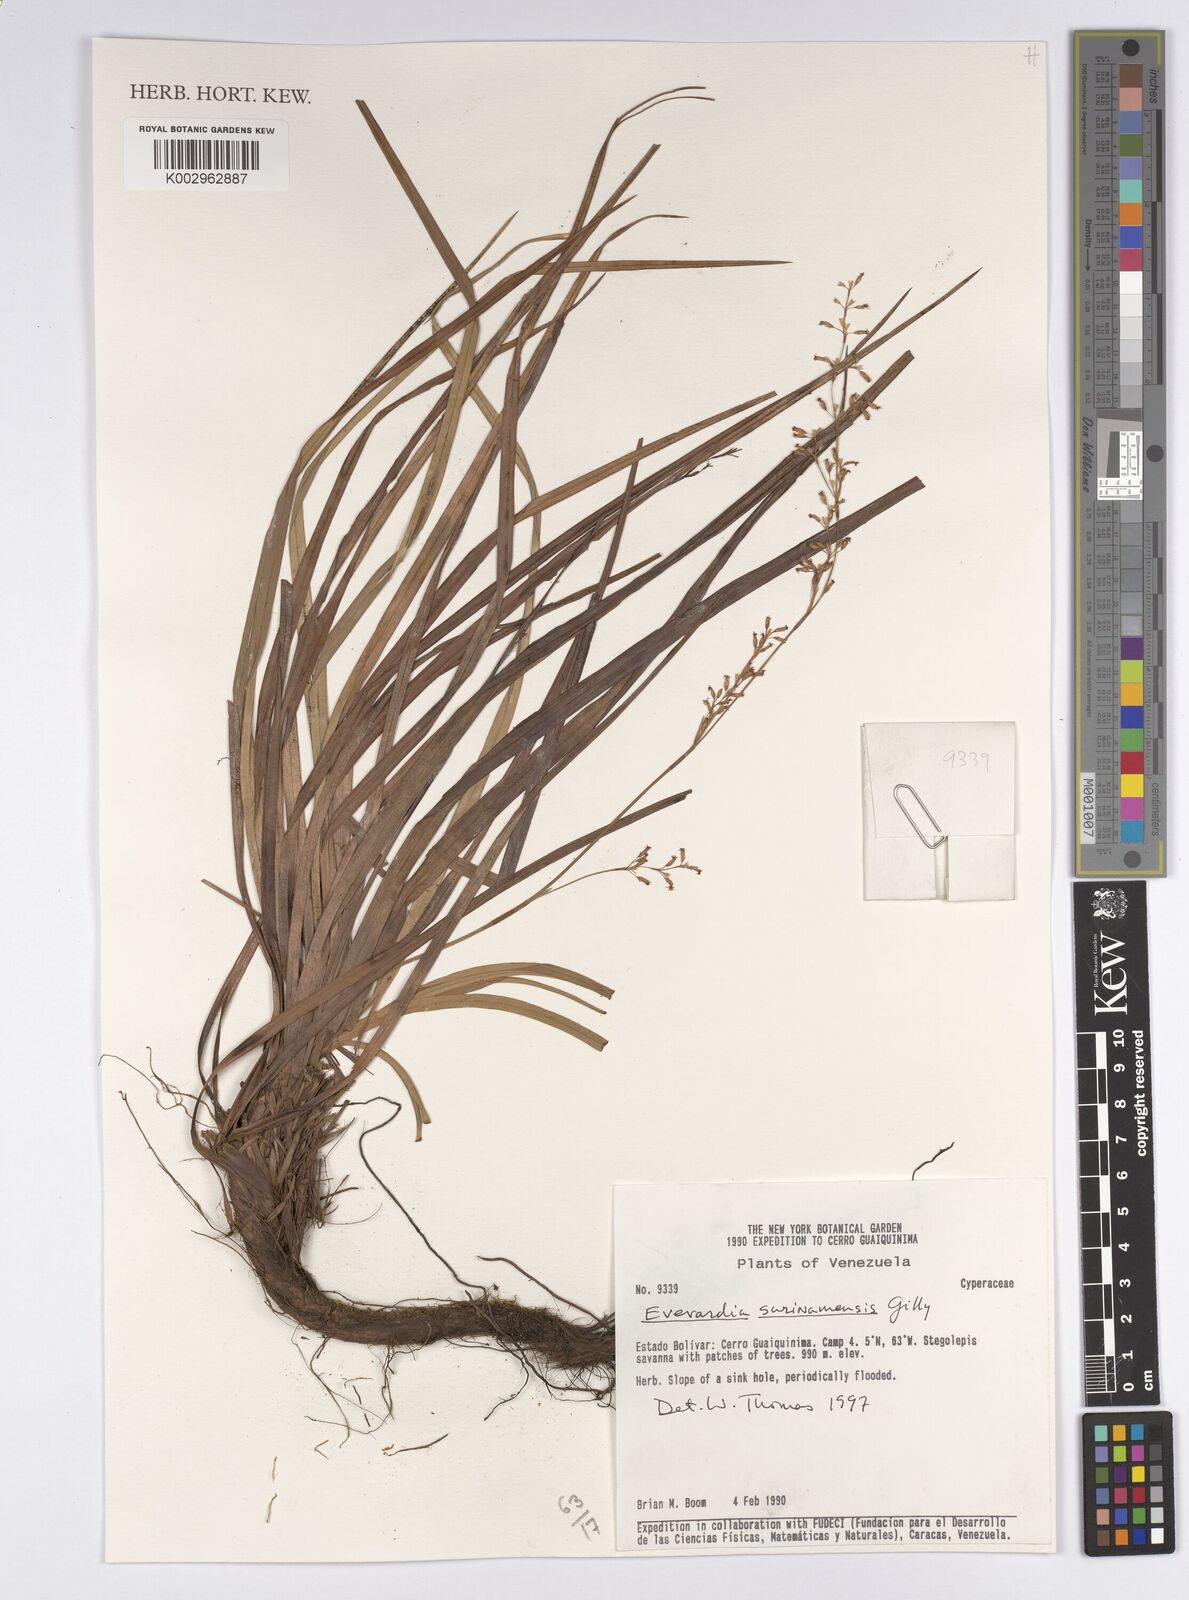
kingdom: Plantae
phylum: Tracheophyta
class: Liliopsida
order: Poales
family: Cyperaceae
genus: Cephalocarpus
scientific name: Cephalocarpus montanus
